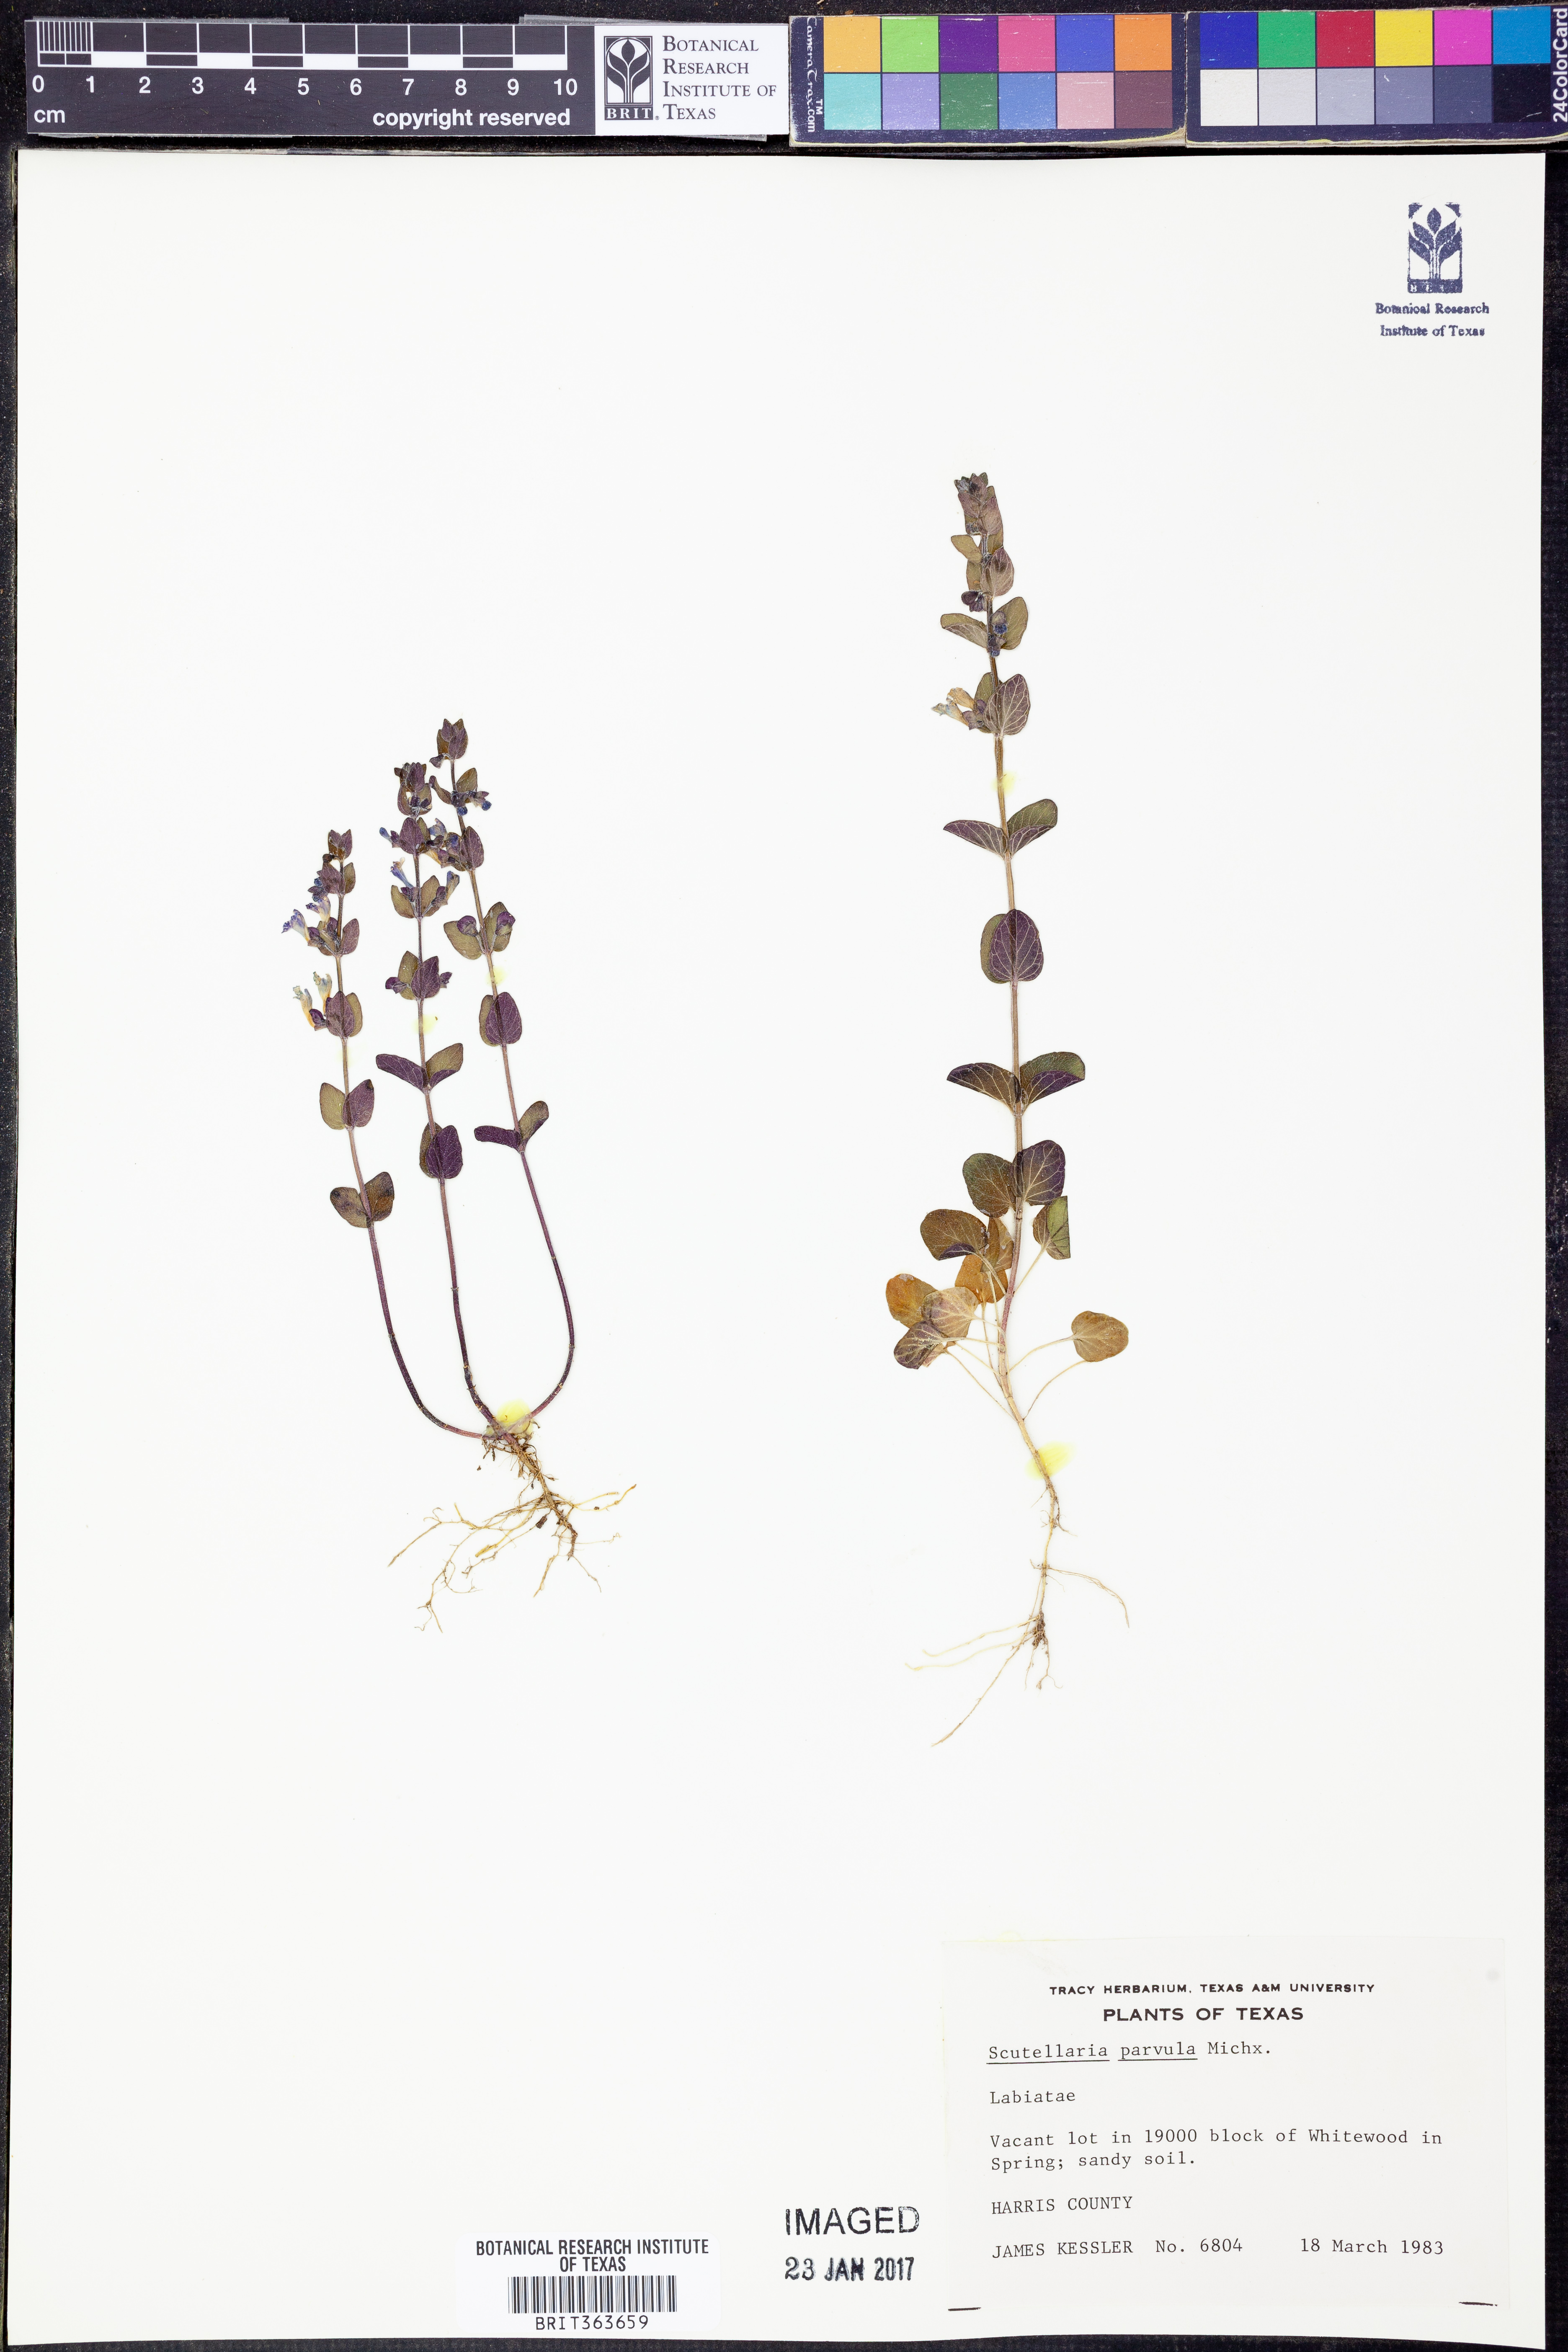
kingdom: Plantae
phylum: Tracheophyta
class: Magnoliopsida
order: Lamiales
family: Lamiaceae
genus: Scutellaria
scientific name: Scutellaria parvula
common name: Little scullcap
